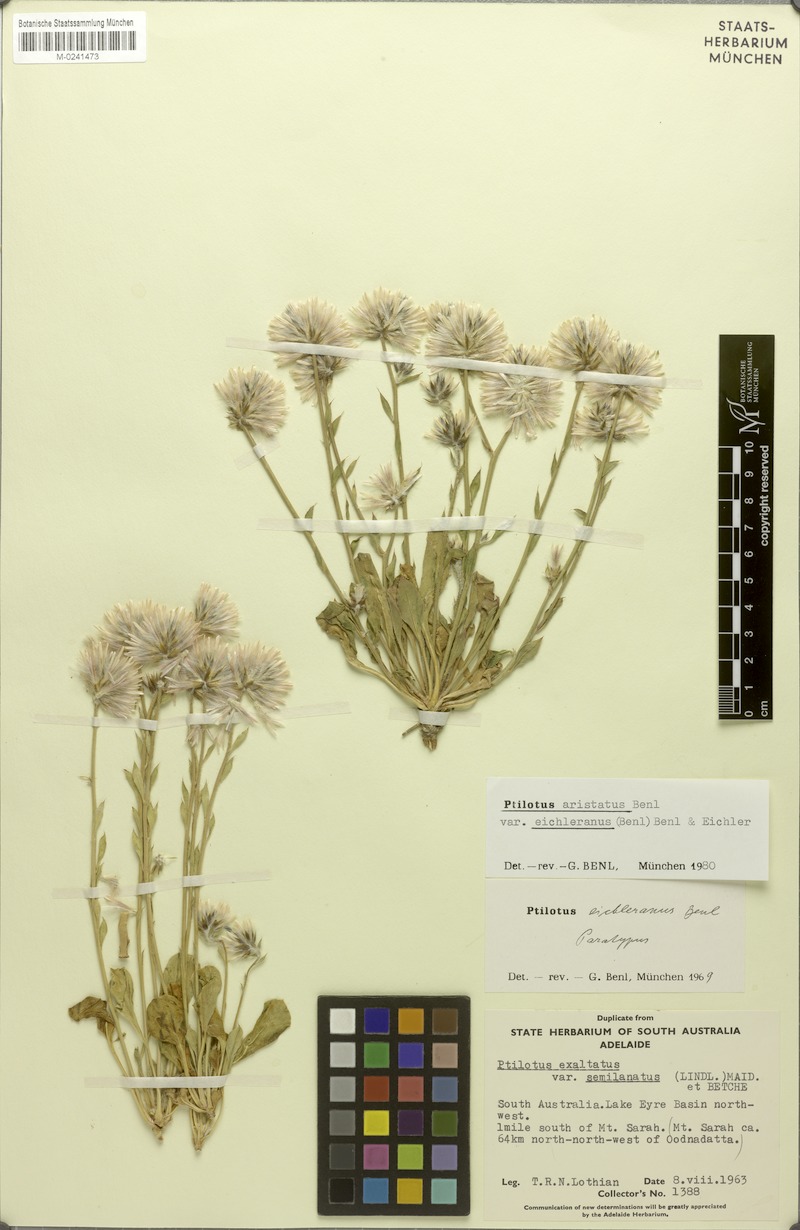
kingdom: Plantae
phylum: Tracheophyta
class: Magnoliopsida
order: Caryophyllales
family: Amaranthaceae
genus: Ptilotus
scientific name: Ptilotus aristatus
